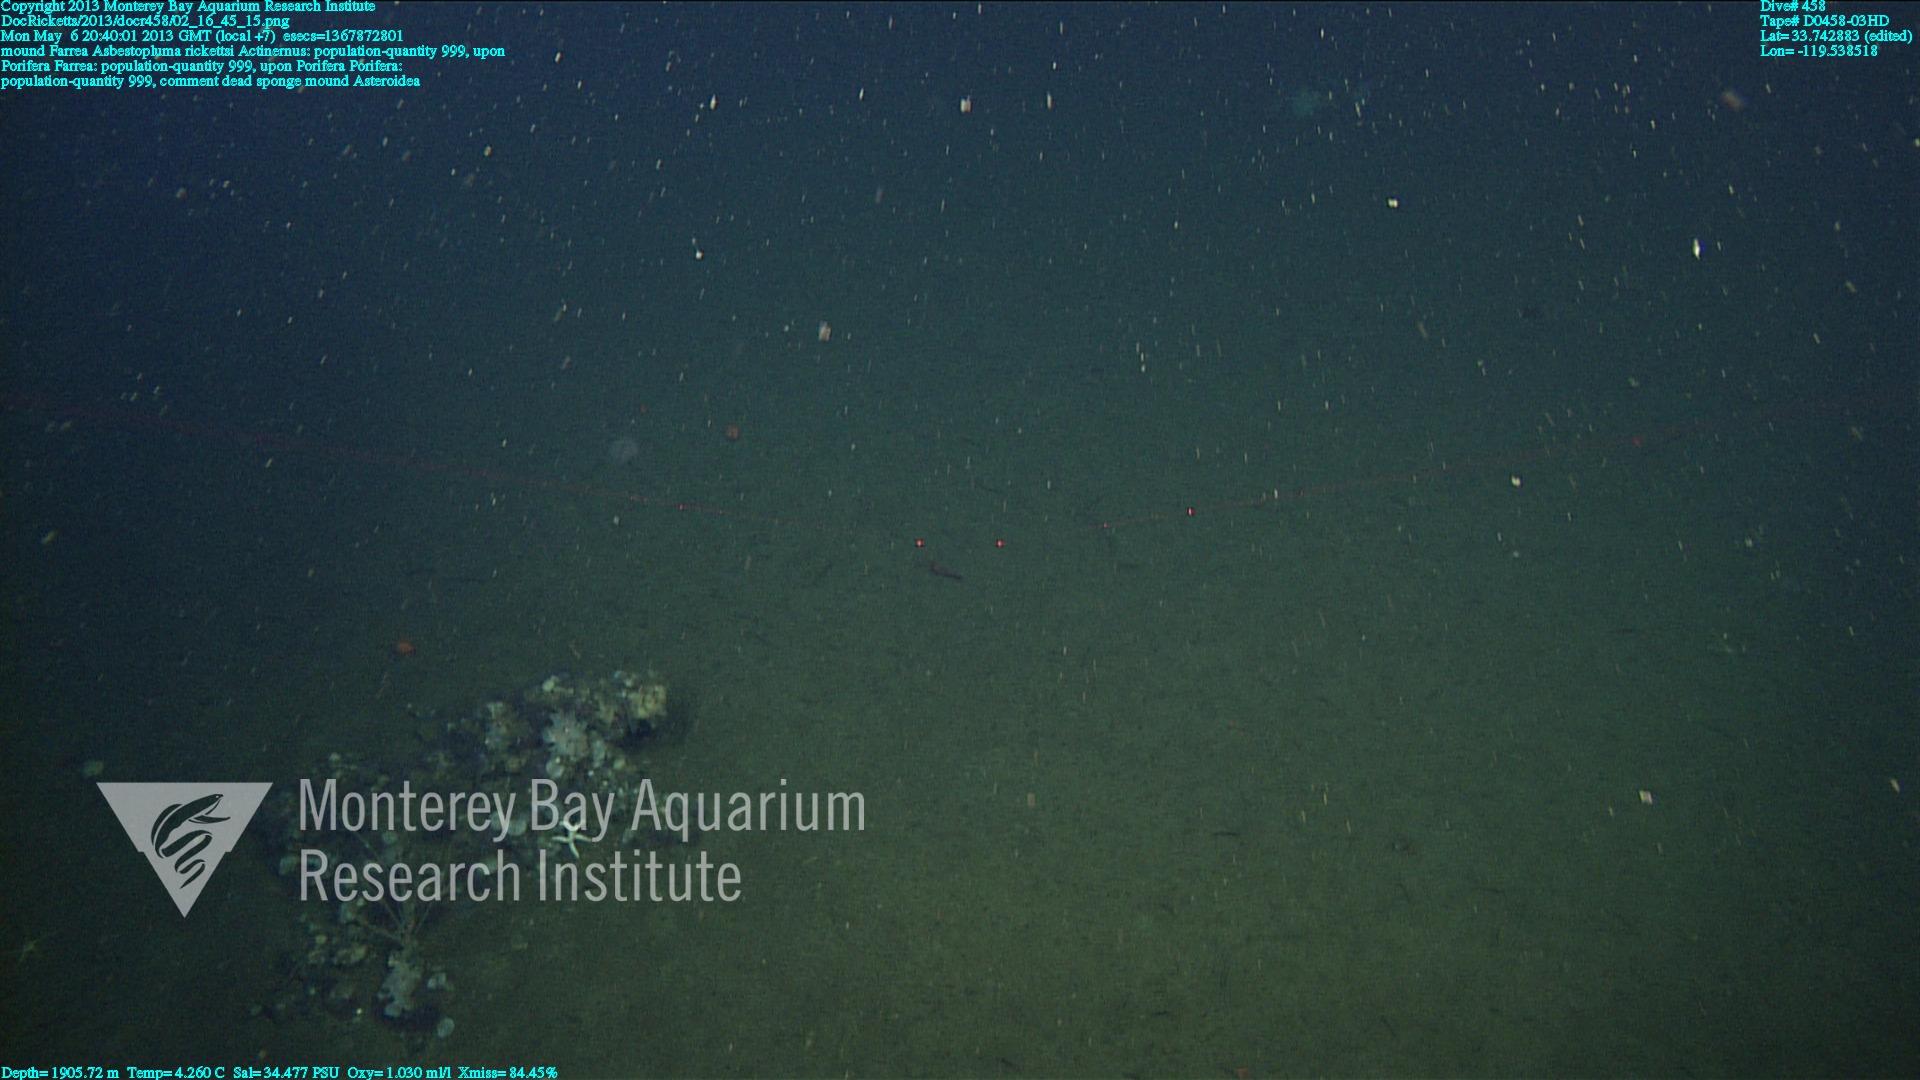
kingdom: Animalia
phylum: Porifera
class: Demospongiae
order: Poecilosclerida
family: Cladorhizidae
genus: Asbestopluma
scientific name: Asbestopluma rickettsi
